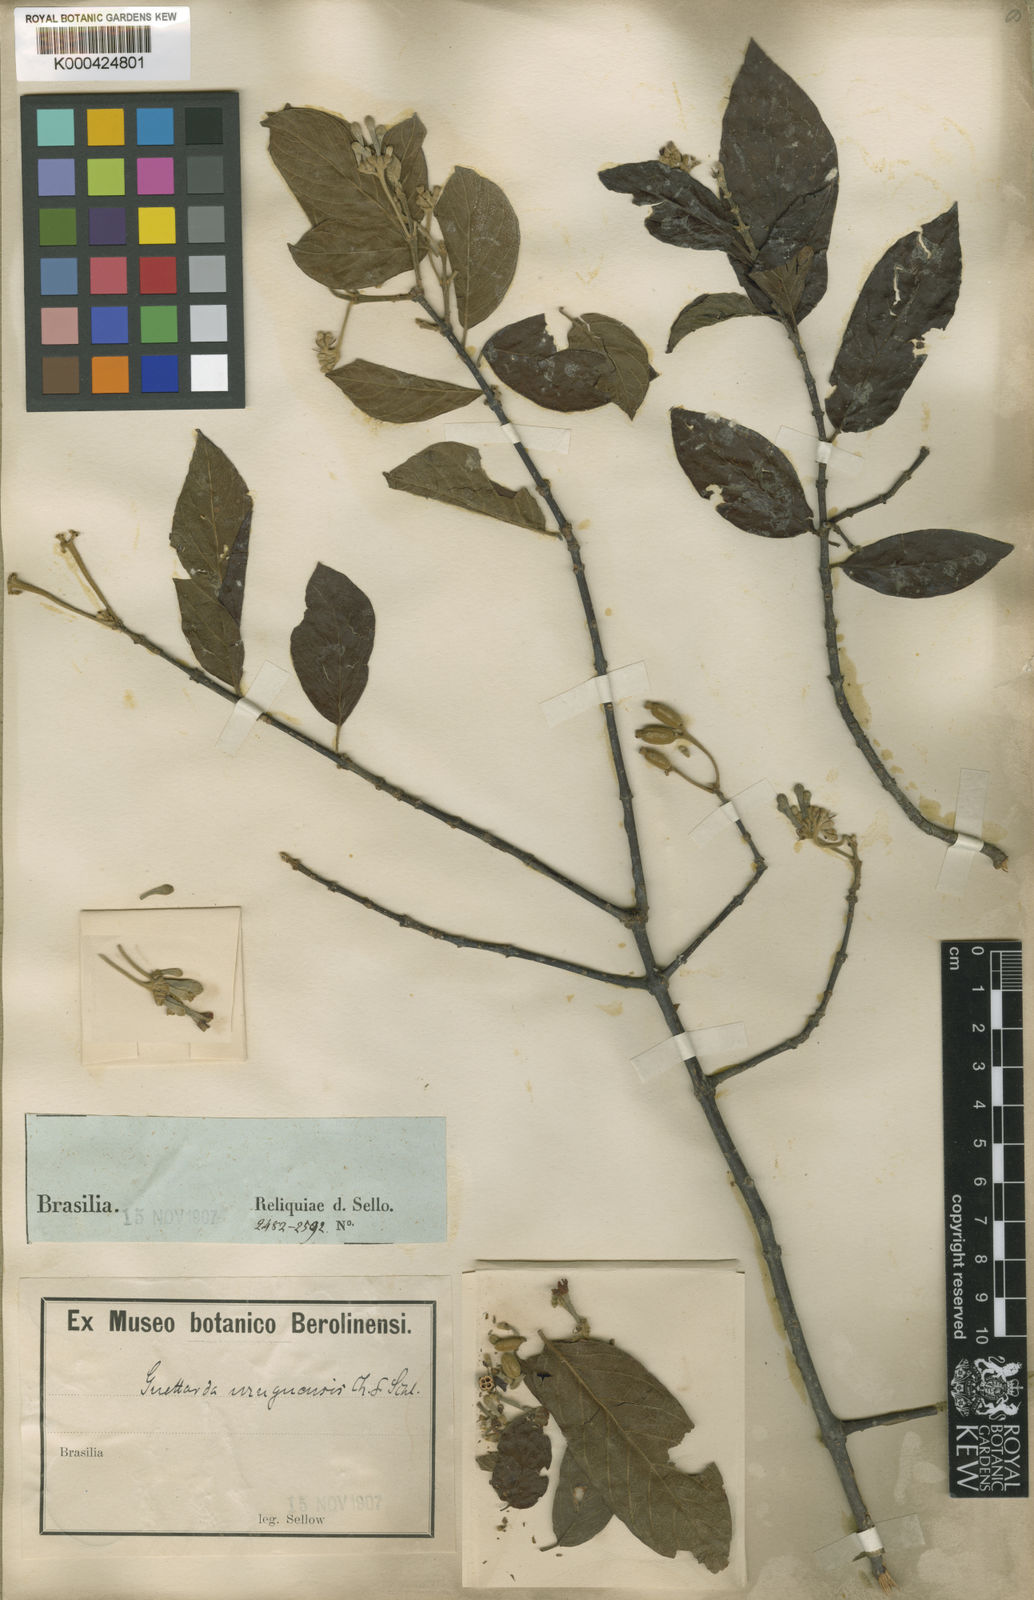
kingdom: Plantae
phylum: Tracheophyta
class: Magnoliopsida
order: Gentianales
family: Rubiaceae
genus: Guettarda
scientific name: Guettarda uruguensis
